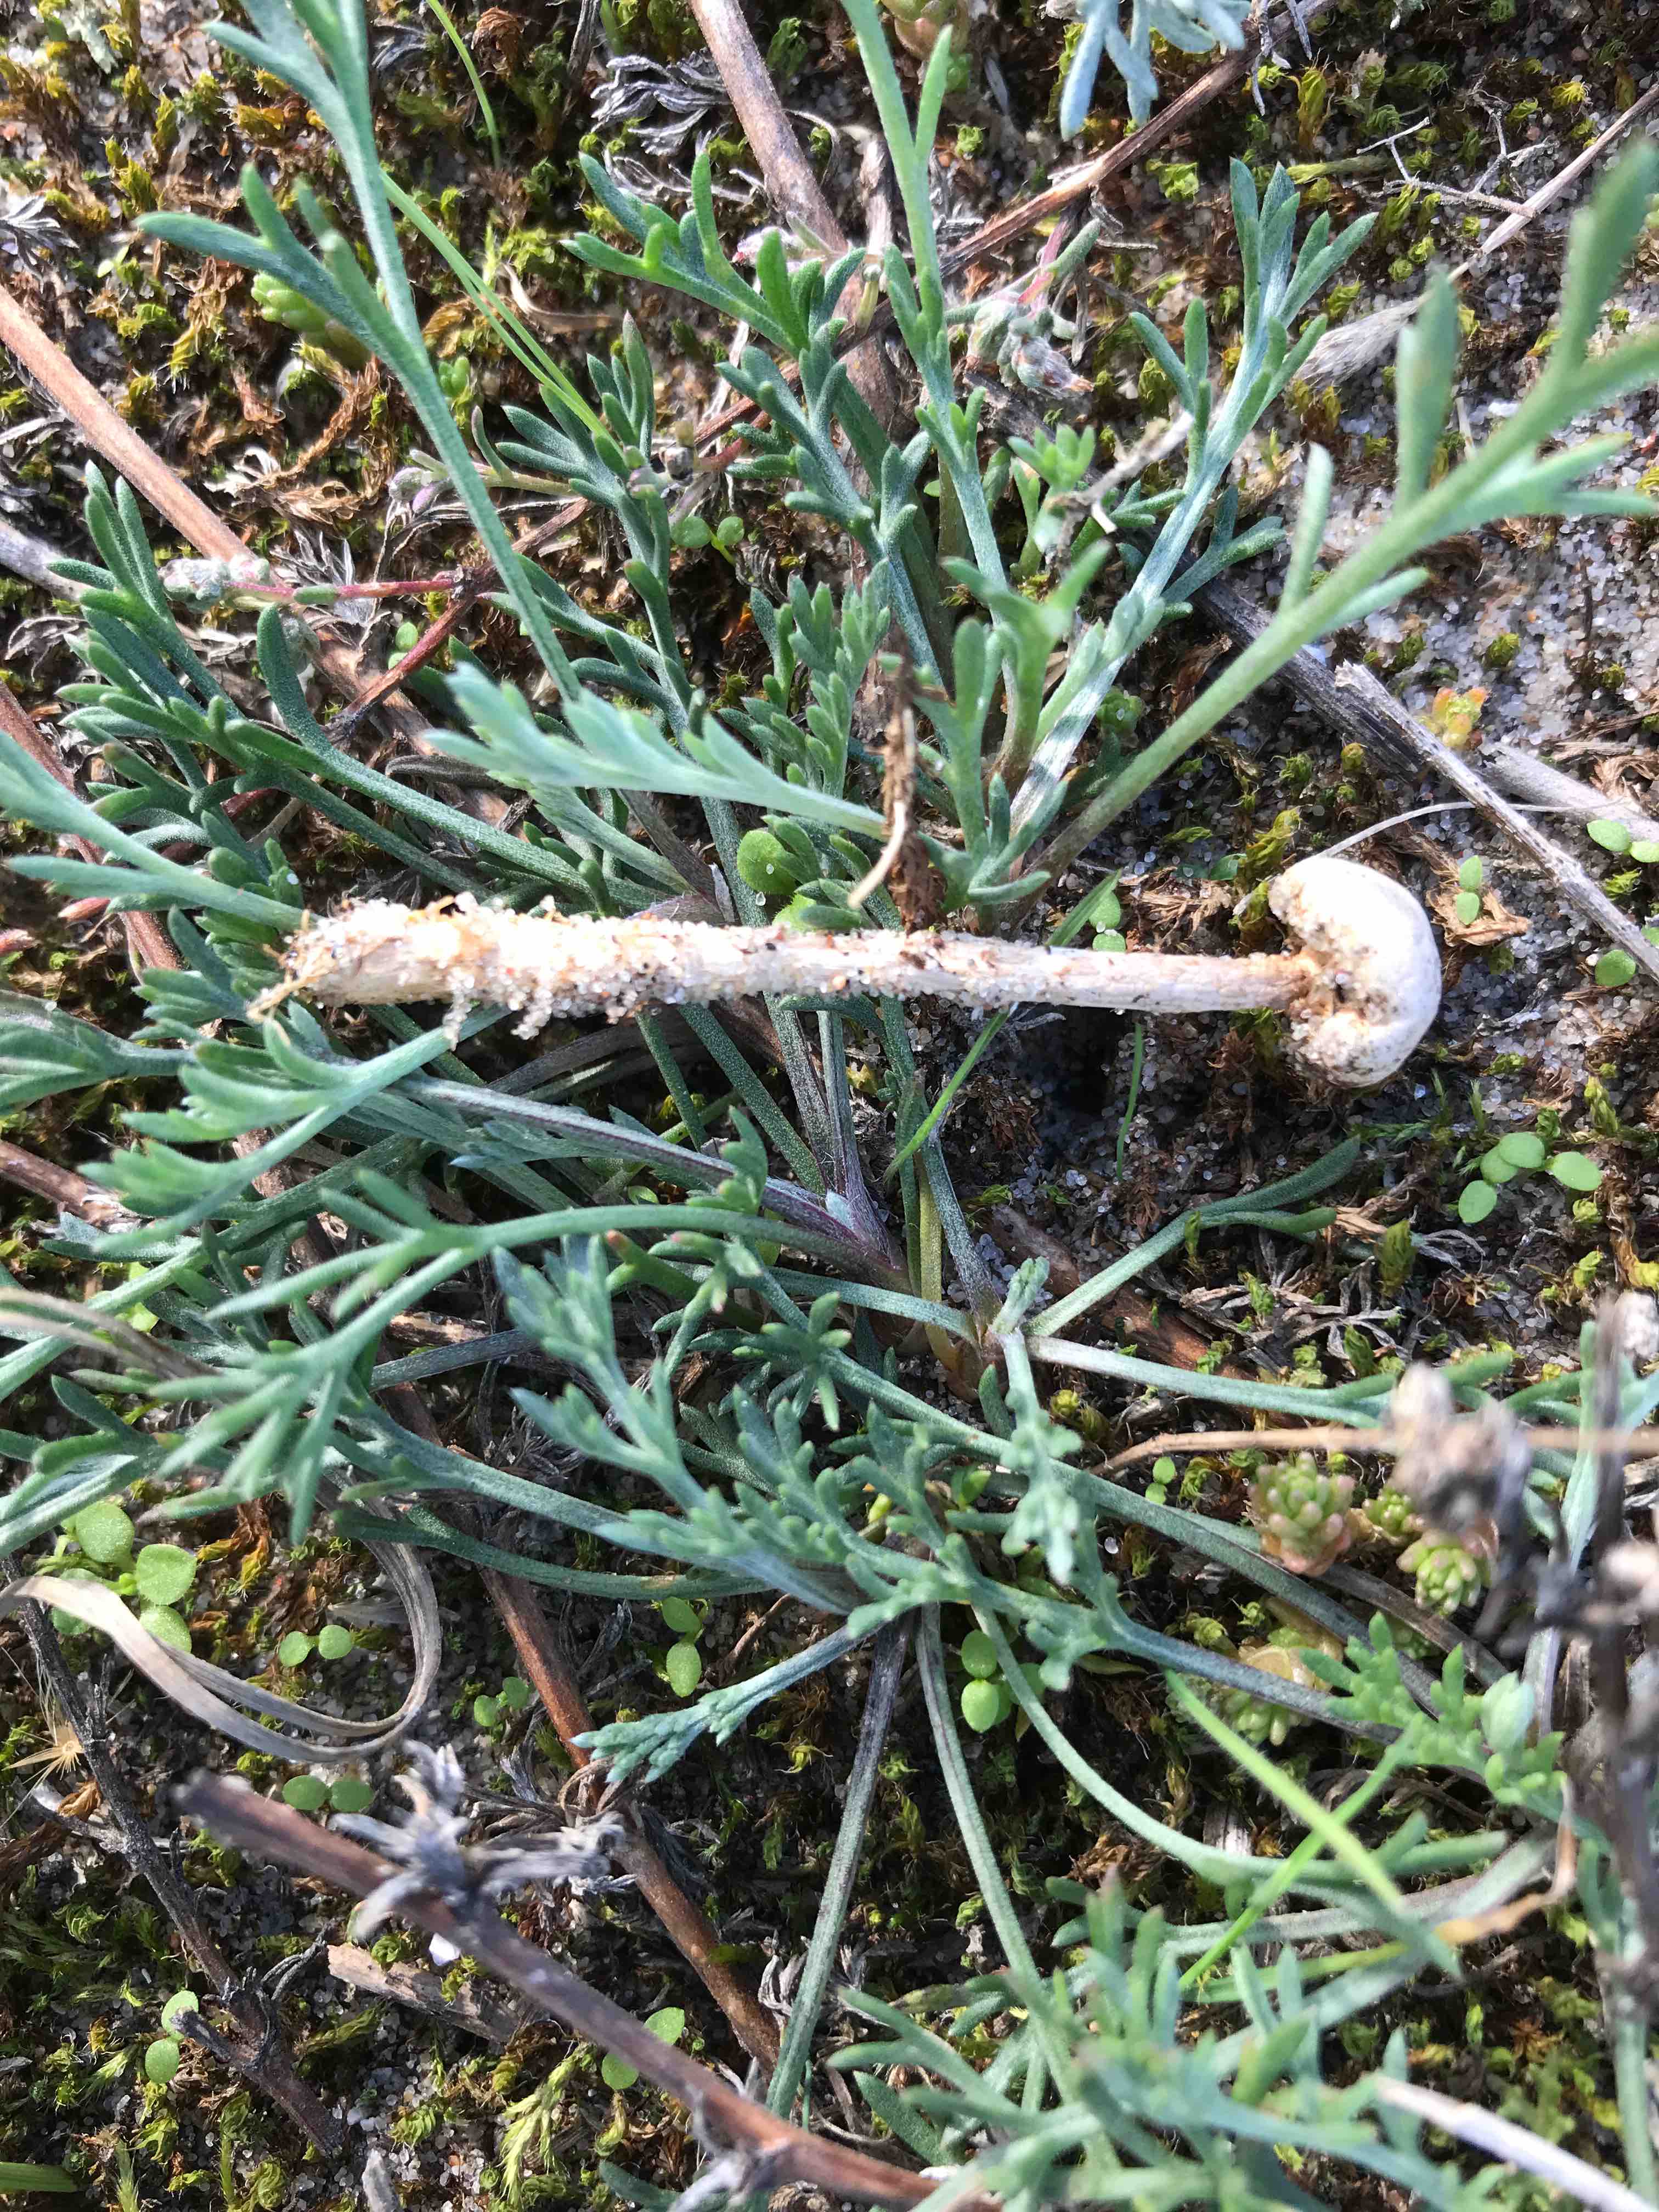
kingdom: Fungi
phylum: Basidiomycota
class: Agaricomycetes
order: Agaricales
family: Agaricaceae
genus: Tulostoma
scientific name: Tulostoma
